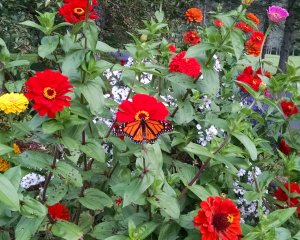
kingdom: Animalia
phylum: Arthropoda
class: Insecta
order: Lepidoptera
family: Nymphalidae
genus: Danaus
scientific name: Danaus plexippus
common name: Monarch
